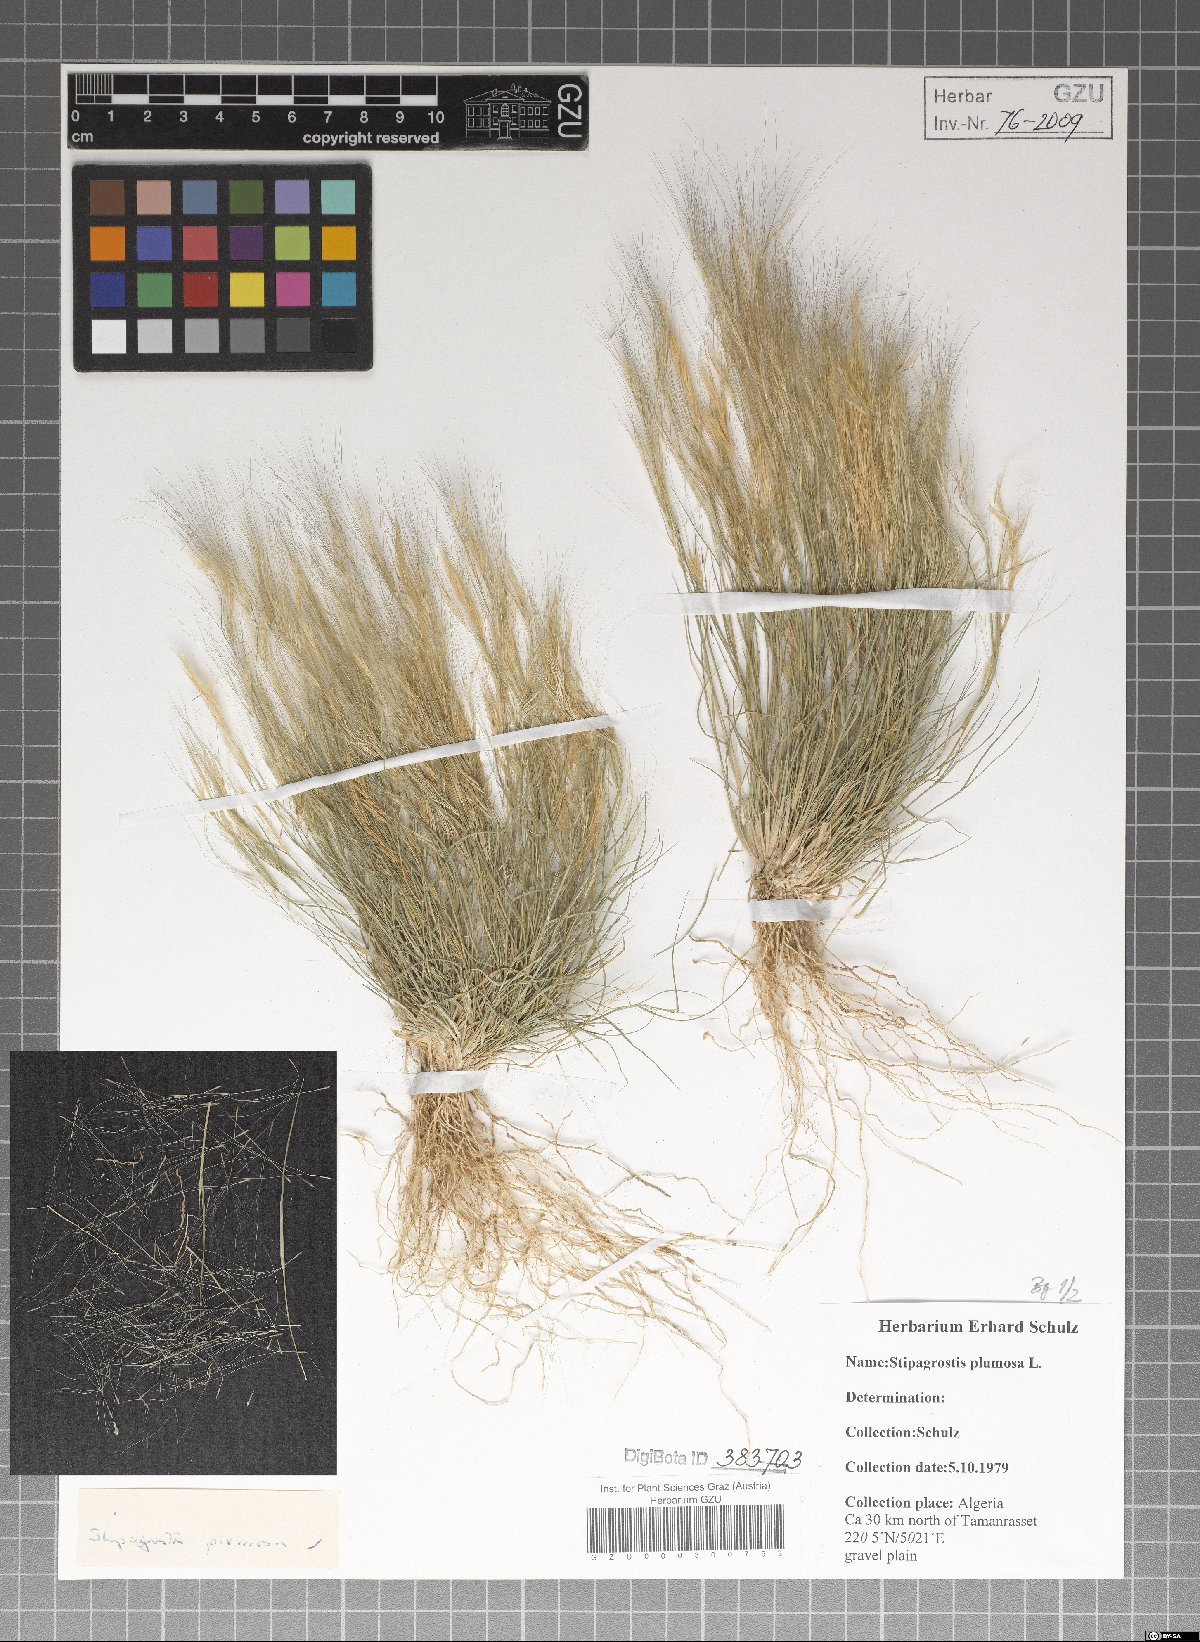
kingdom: Plantae
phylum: Tracheophyta
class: Liliopsida
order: Poales
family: Poaceae
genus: Stipagrostis
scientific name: Stipagrostis plumosa
